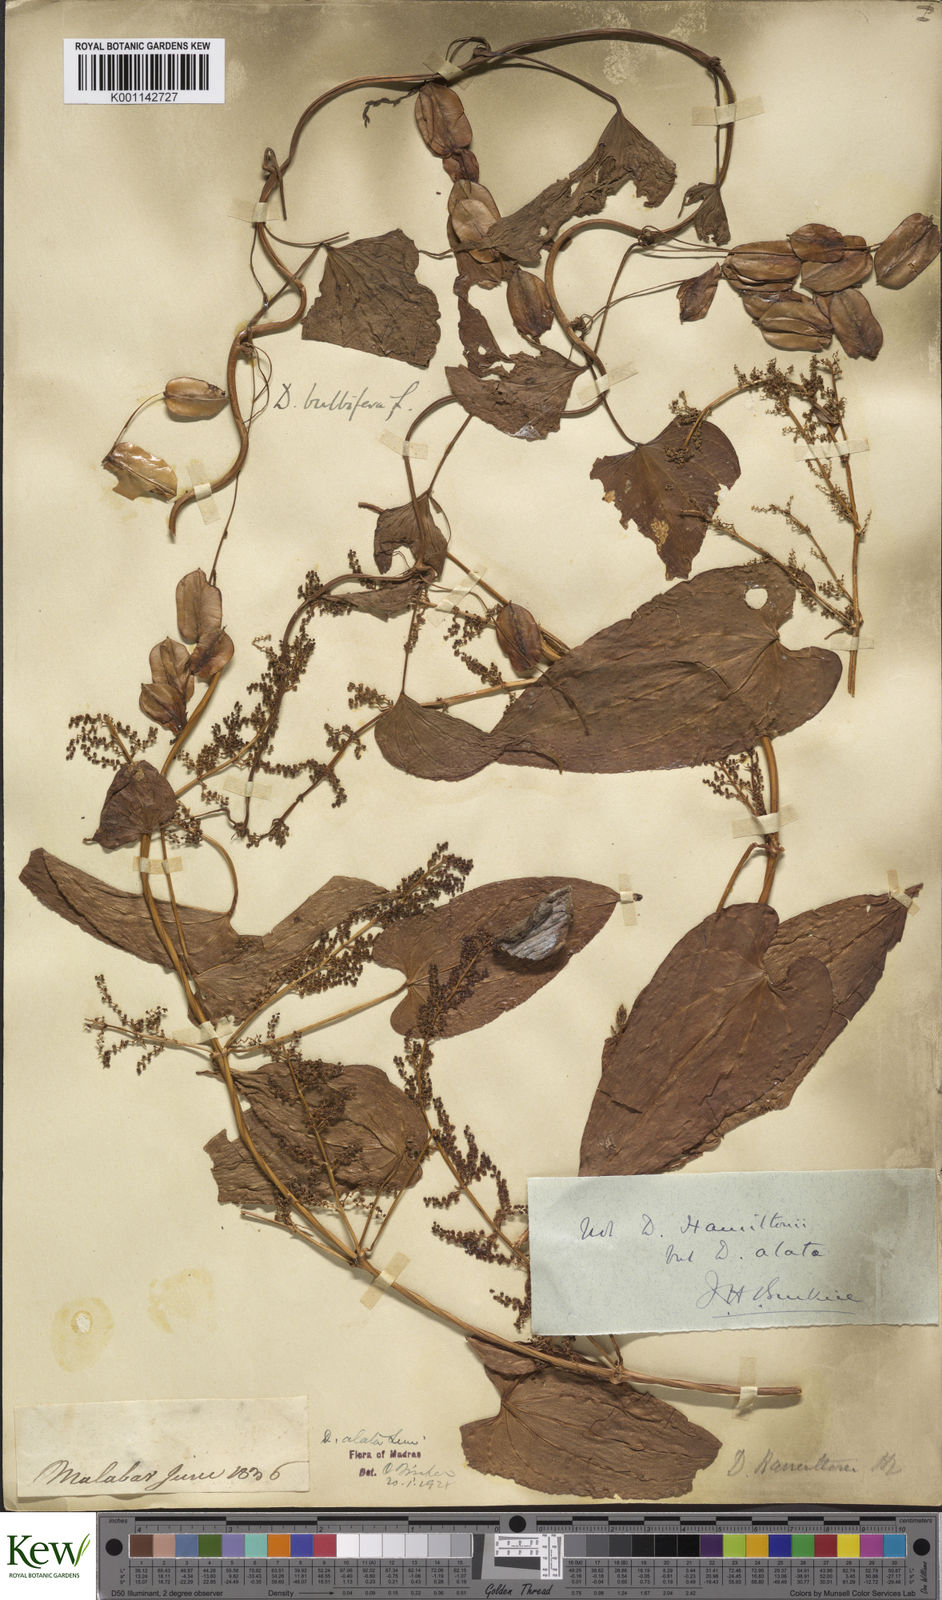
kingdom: Plantae
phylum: Tracheophyta
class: Liliopsida
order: Dioscoreales
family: Dioscoreaceae
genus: Dioscorea
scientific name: Dioscorea alata
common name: Water yam
